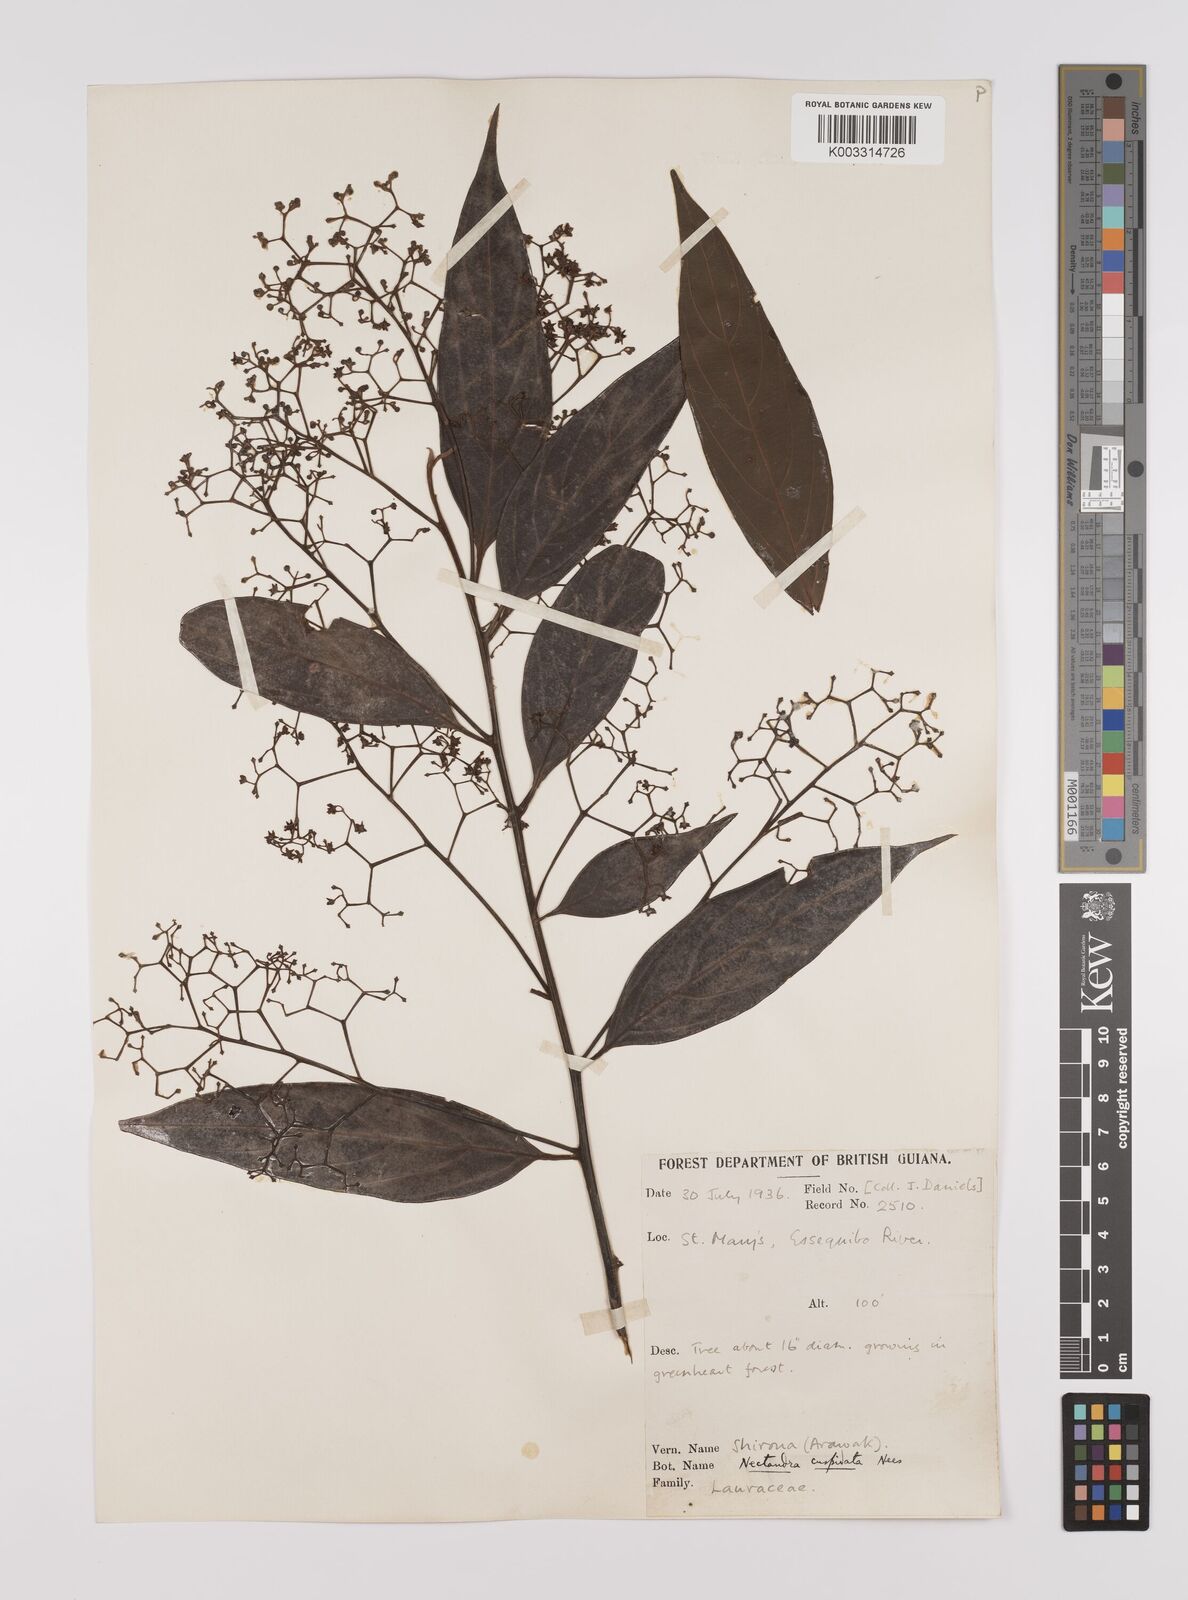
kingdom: Plantae
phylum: Tracheophyta
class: Magnoliopsida
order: Laurales
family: Lauraceae
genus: Nectandra
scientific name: Nectandra cuspidata
